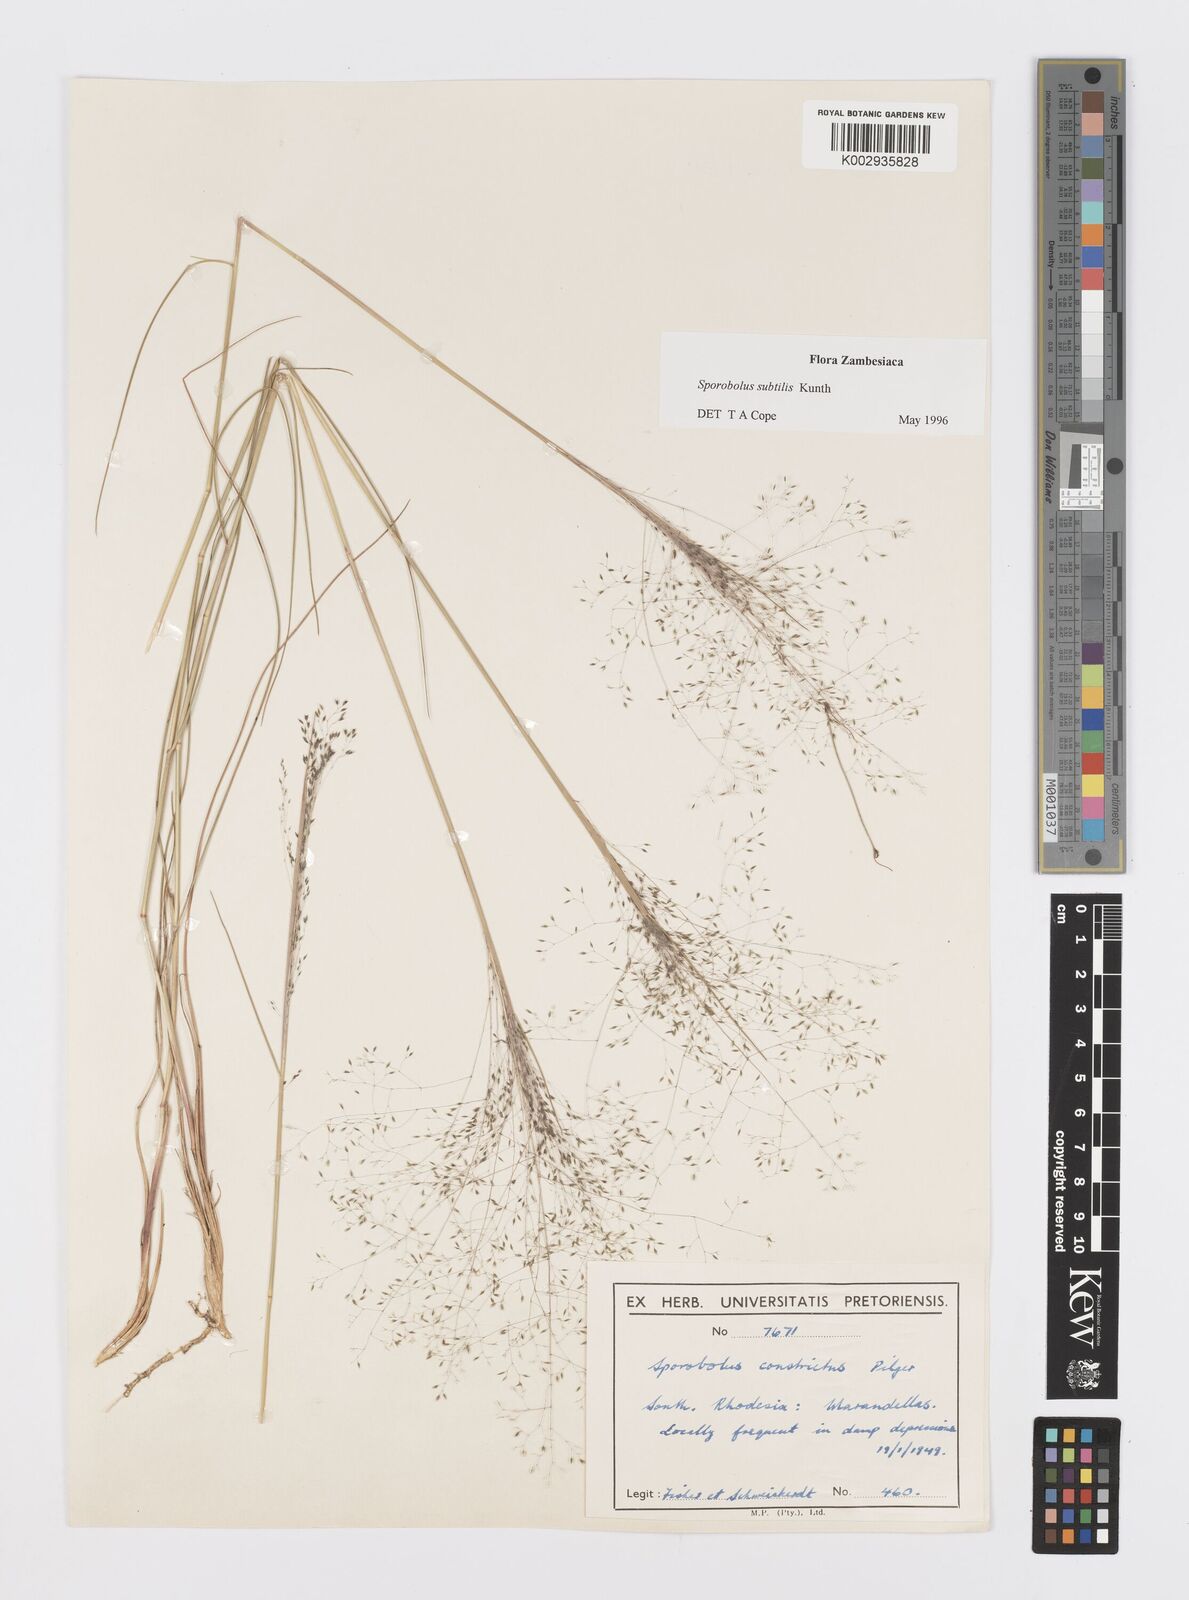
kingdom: Plantae
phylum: Tracheophyta
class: Liliopsida
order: Poales
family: Poaceae
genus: Sporobolus
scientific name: Sporobolus subtilis
